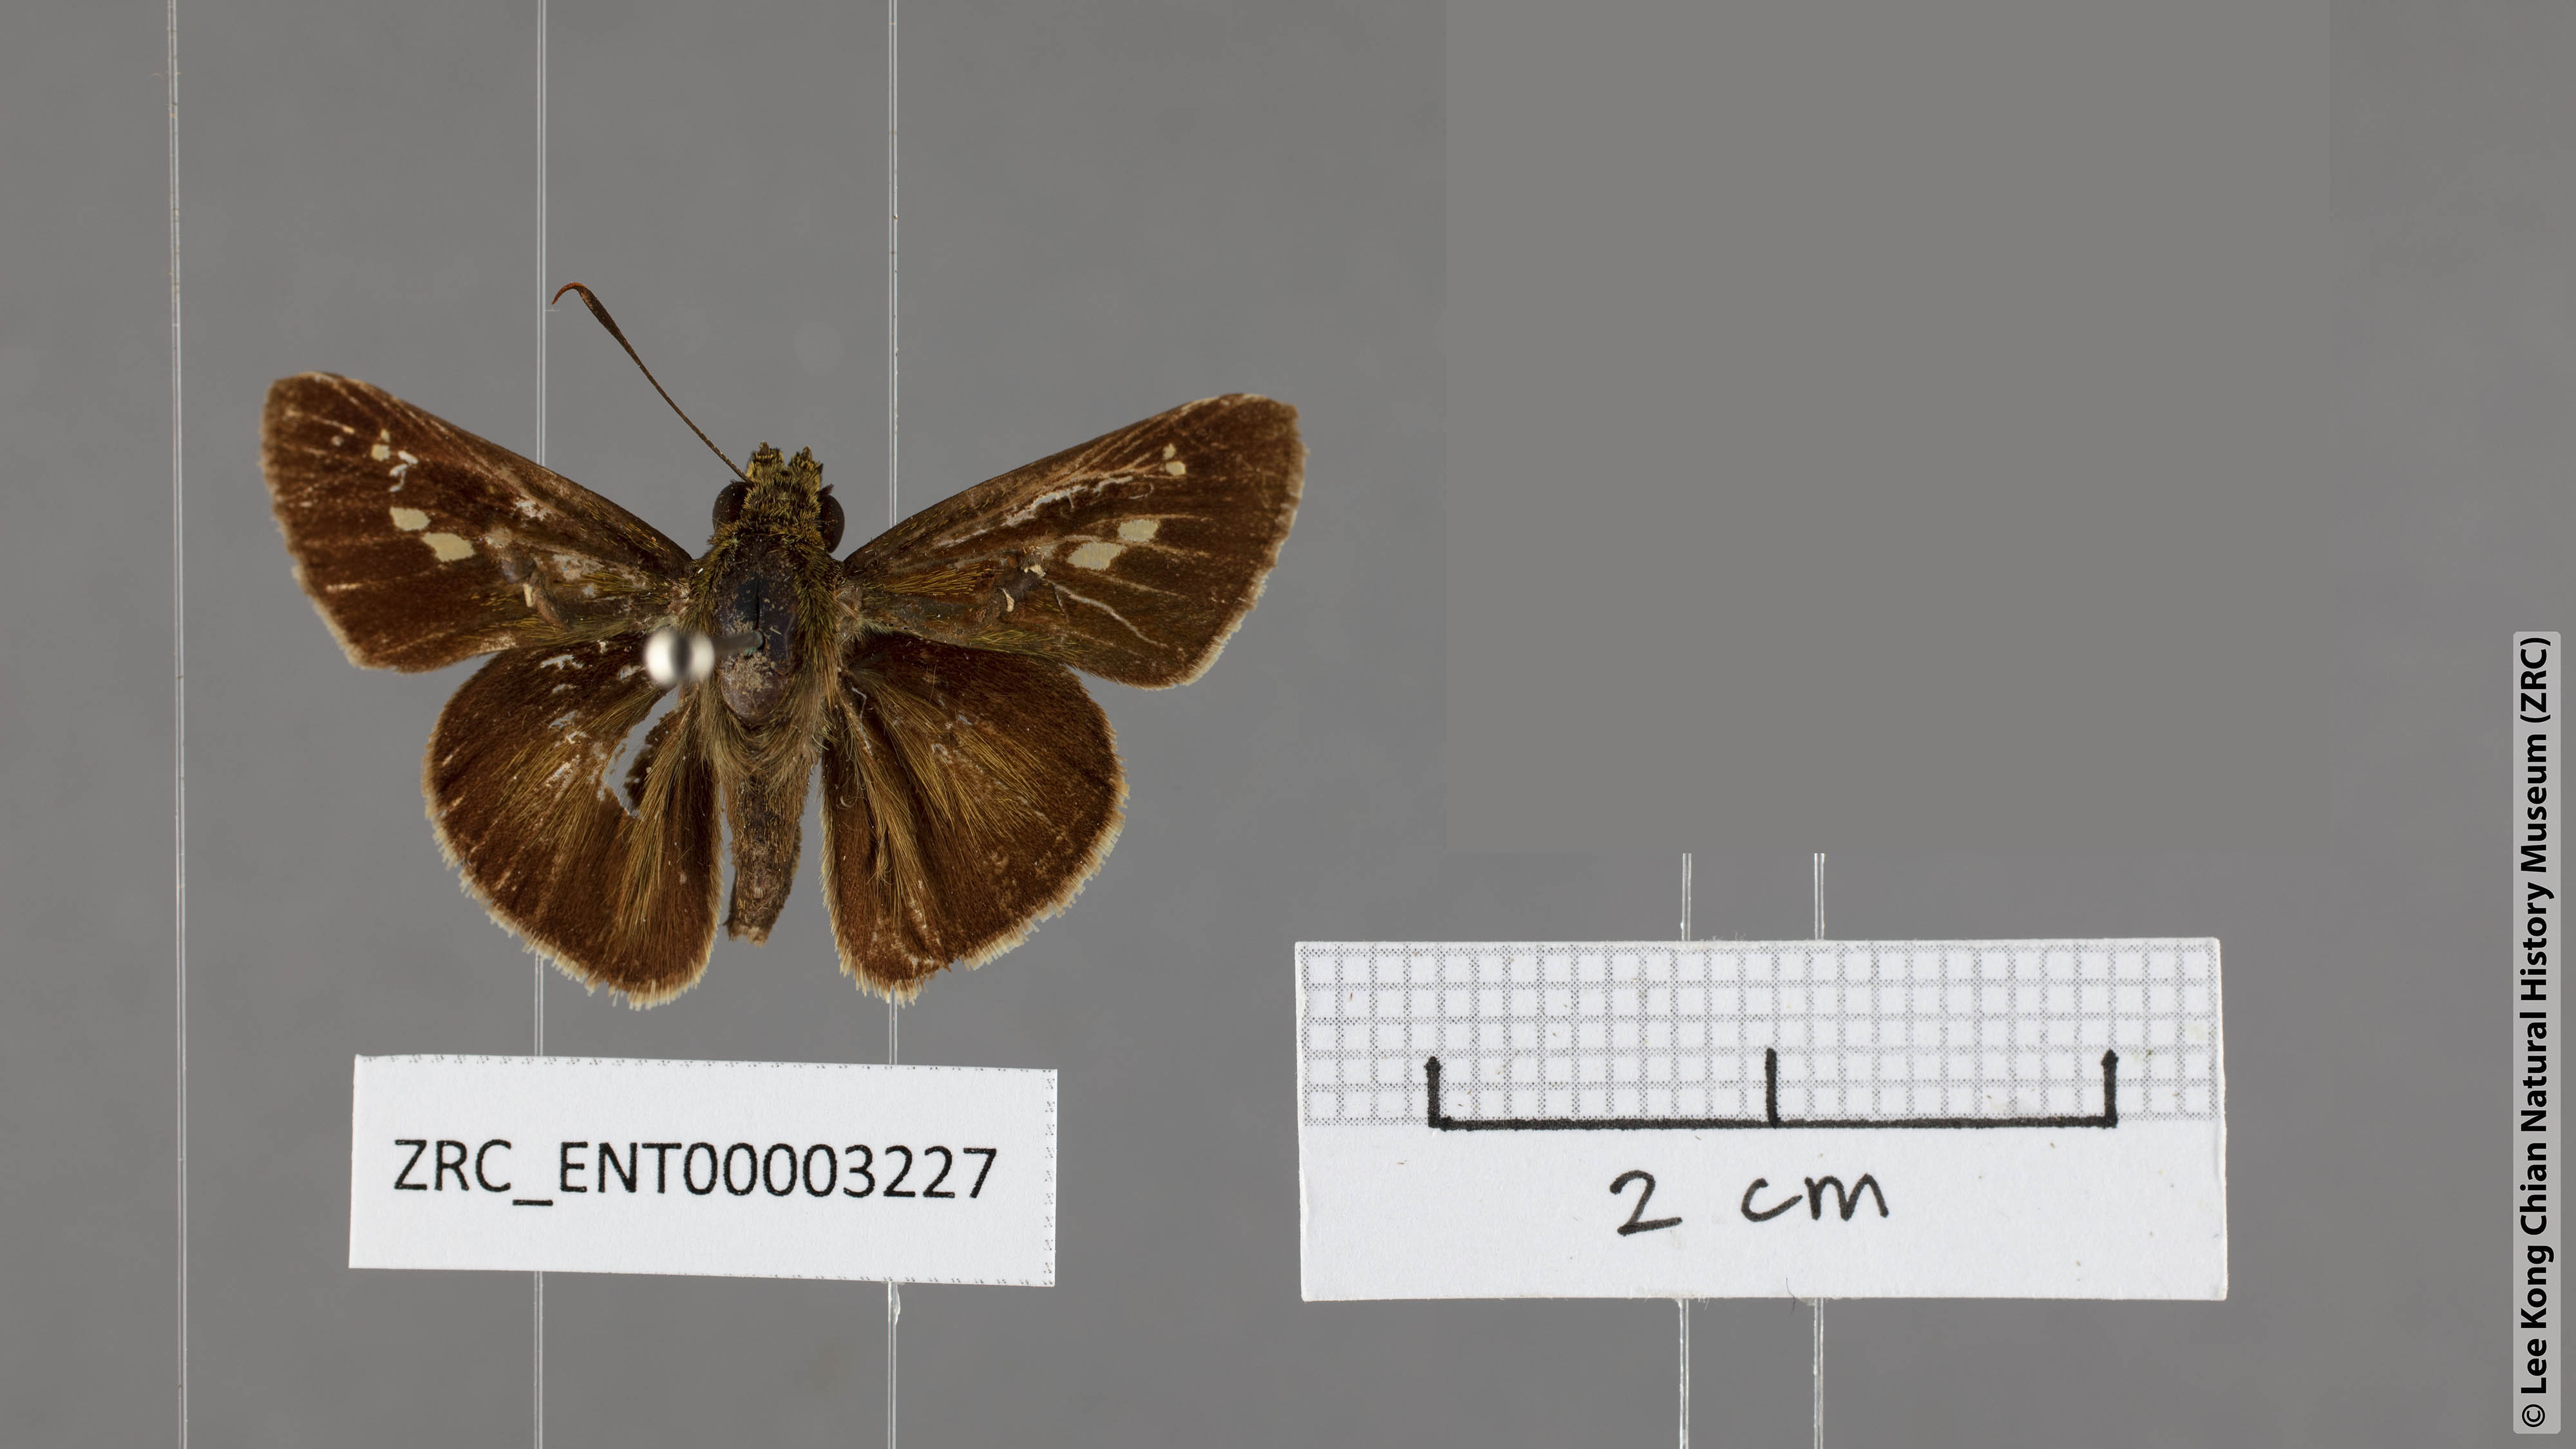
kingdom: Animalia
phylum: Arthropoda
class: Insecta
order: Lepidoptera
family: Hesperiidae
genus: Halpe
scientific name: Halpe flava
